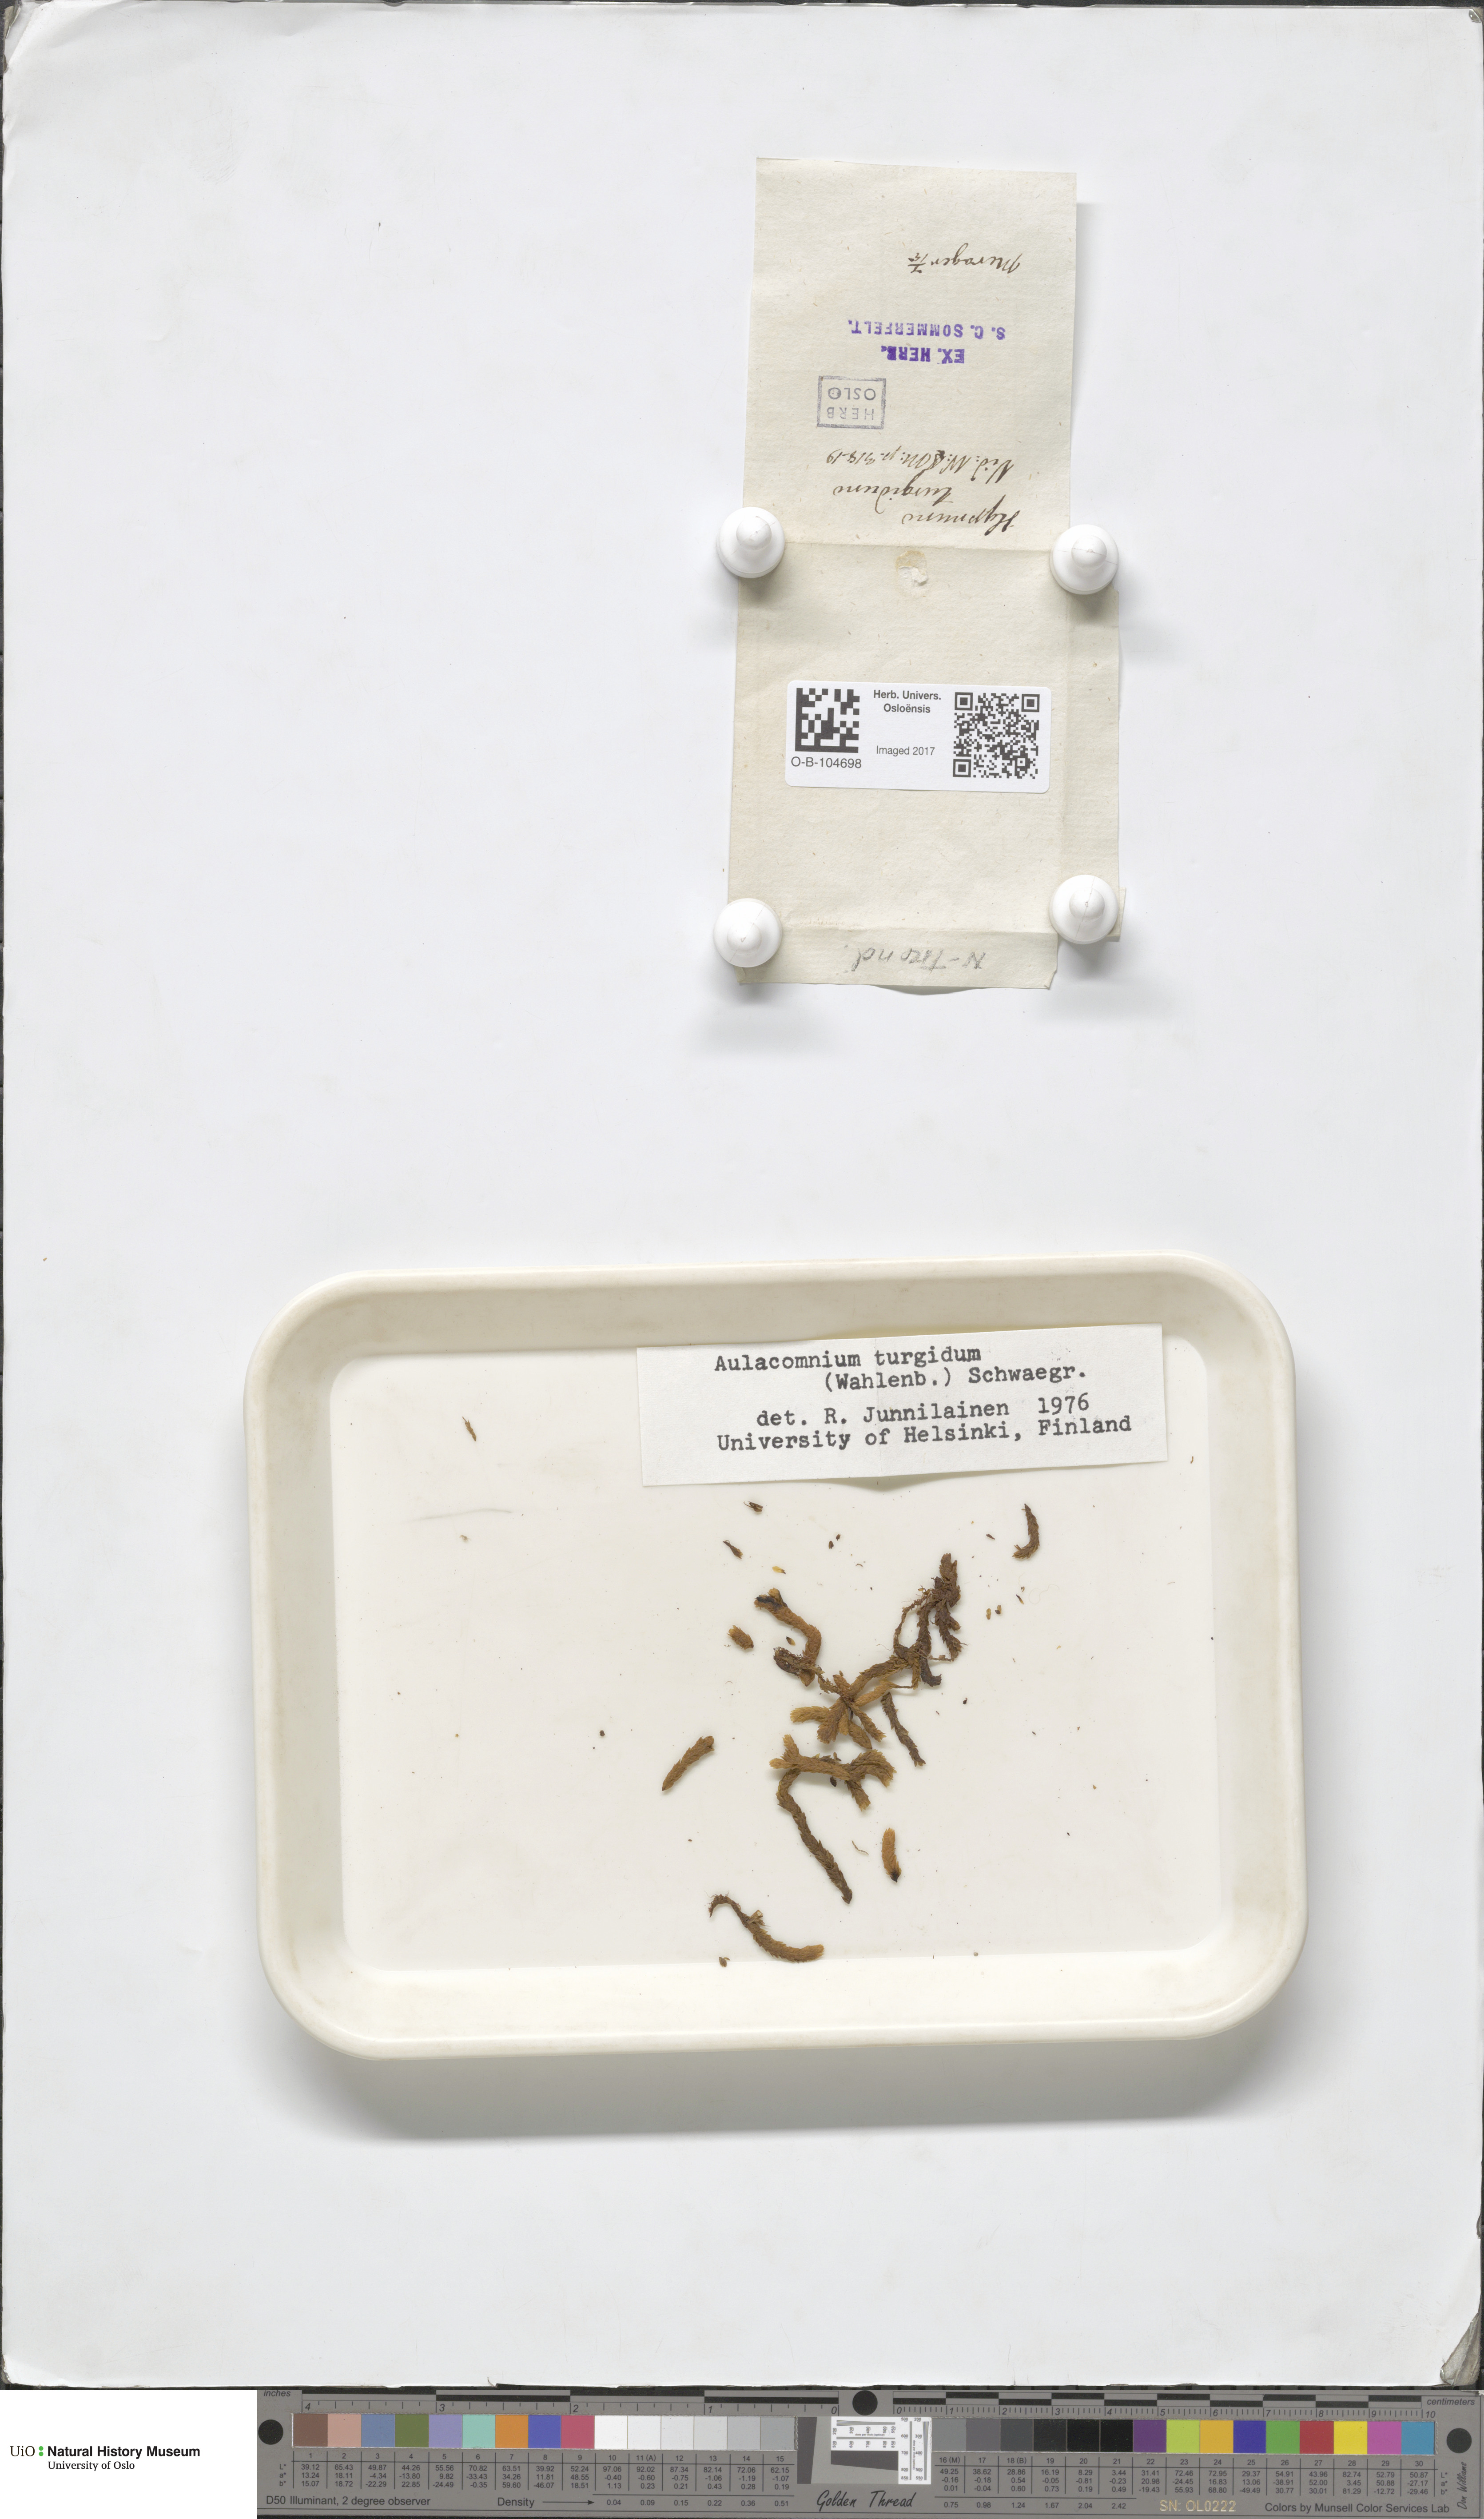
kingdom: Plantae
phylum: Bryophyta
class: Bryopsida
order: Aulacomniales
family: Aulacomniaceae
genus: Aulacomnium
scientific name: Aulacomnium turgidum
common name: Mountain groove moss
